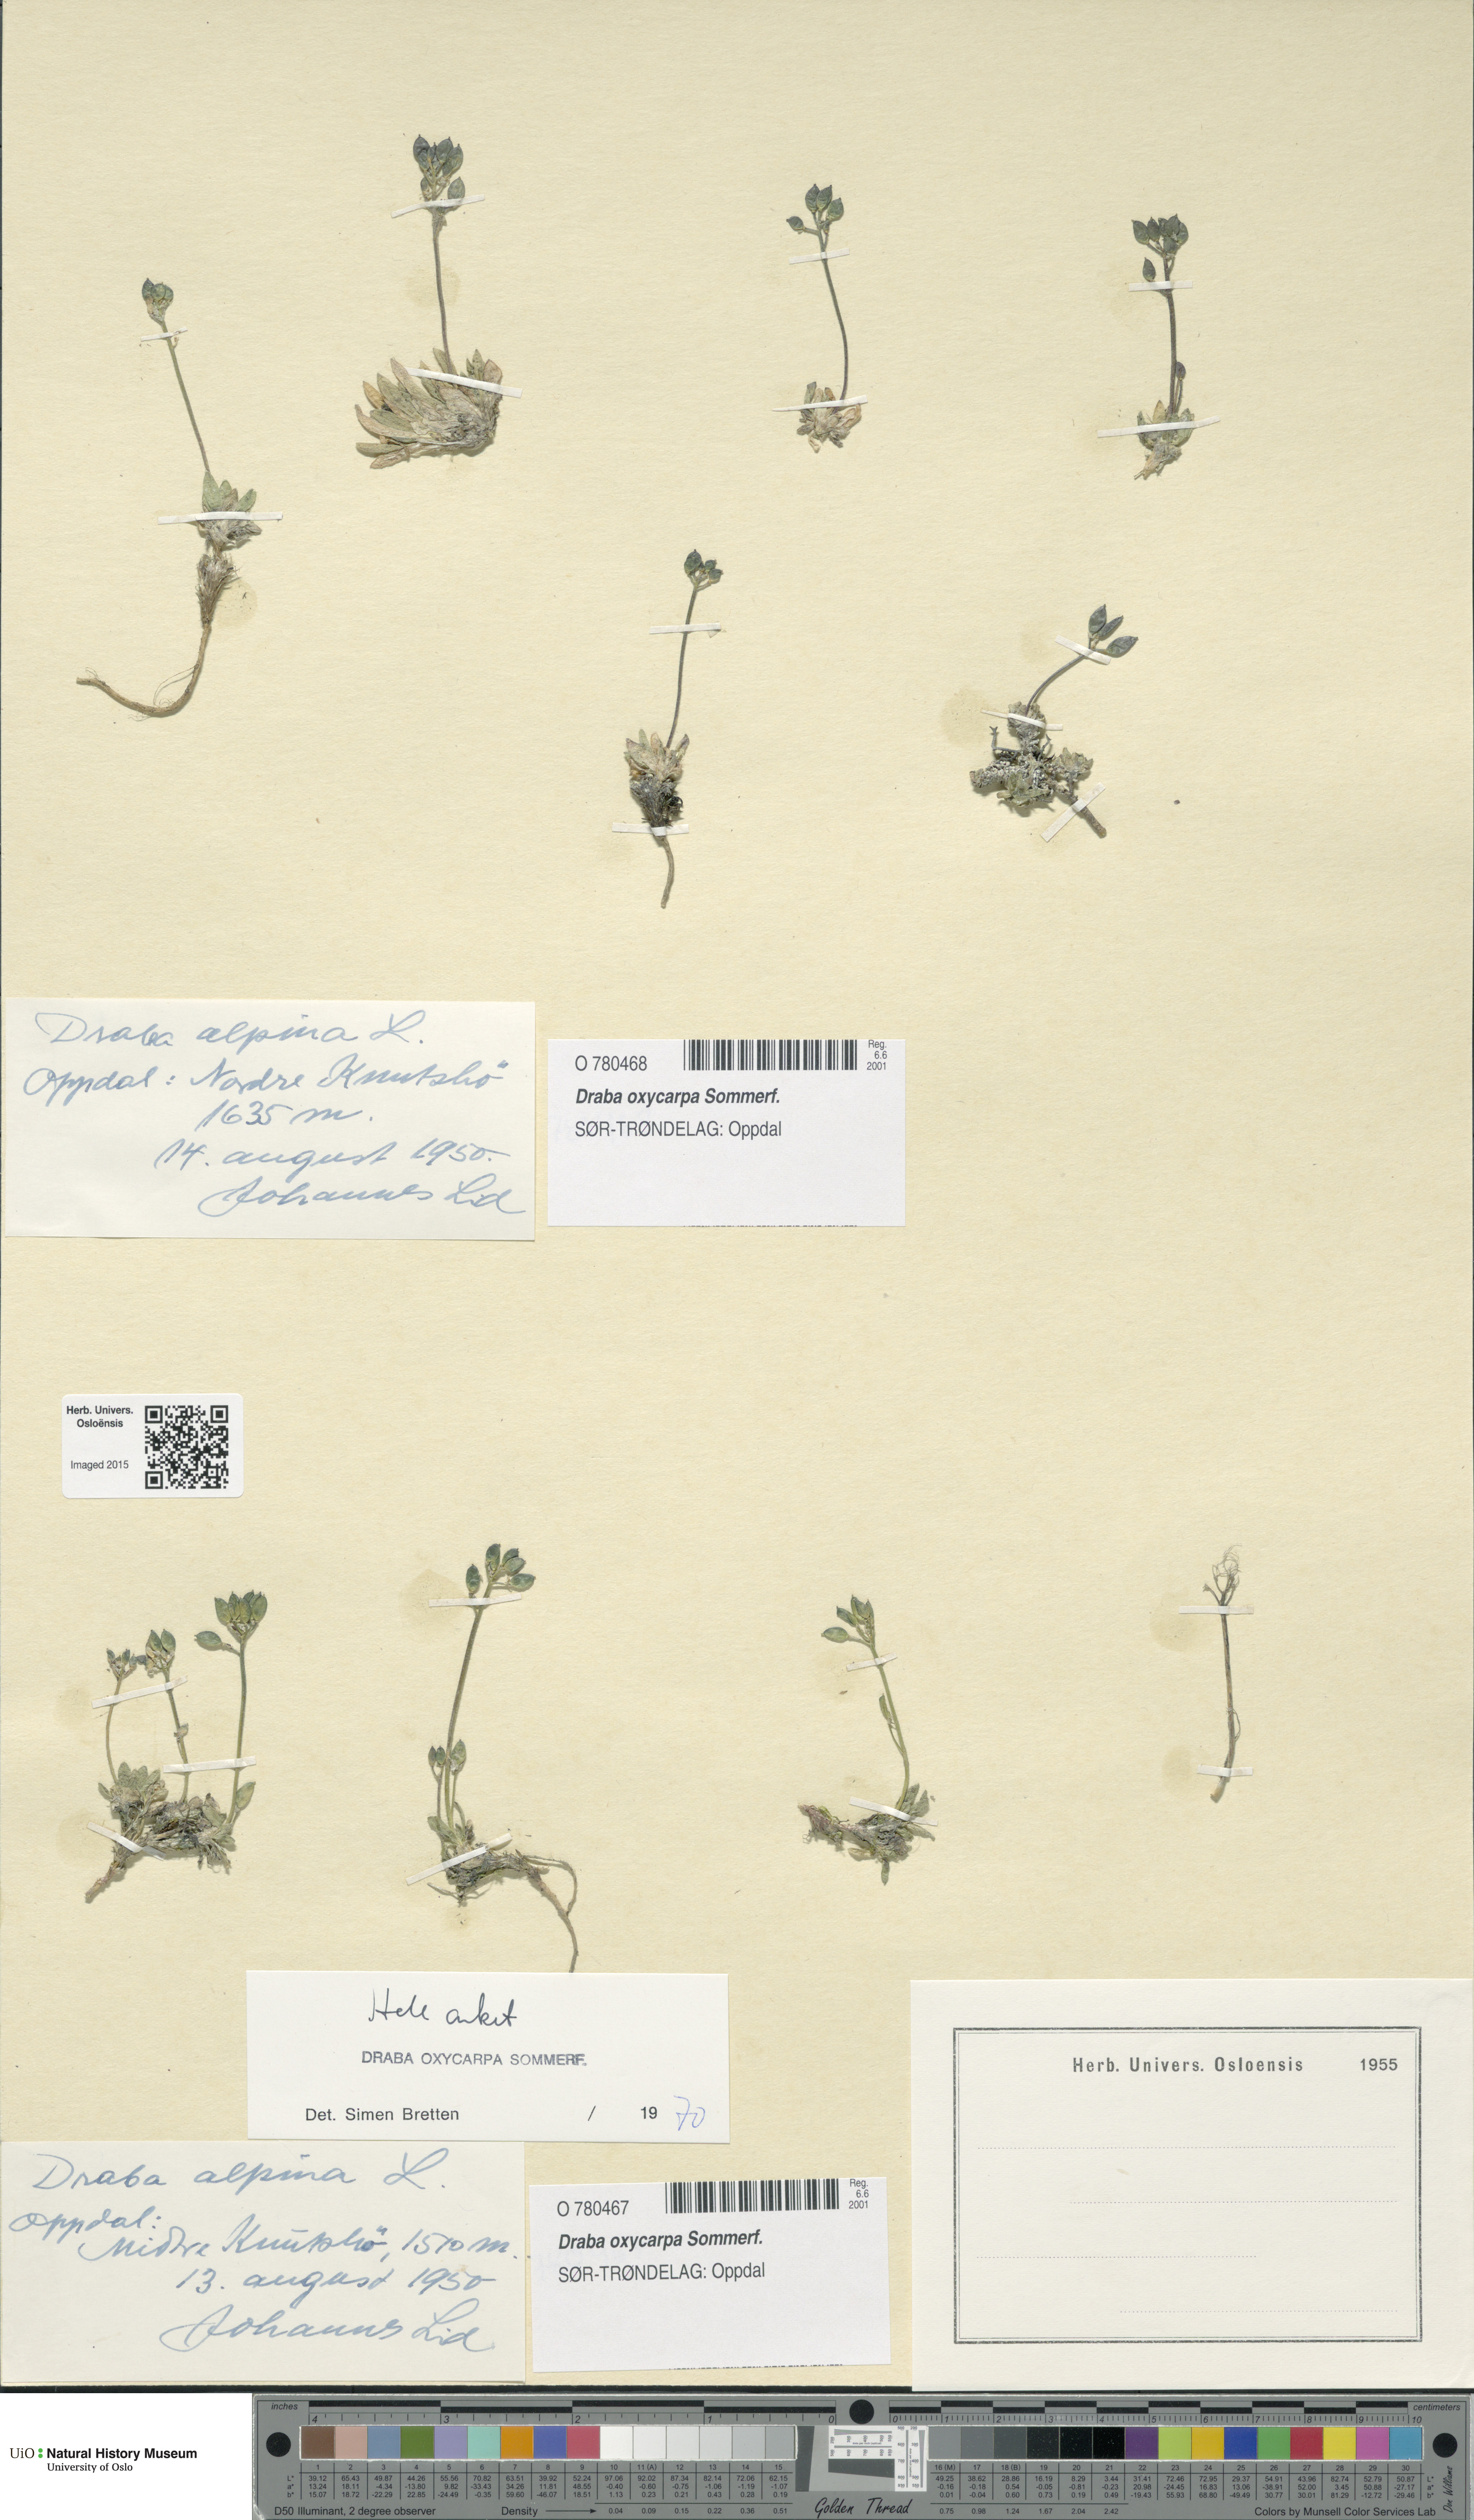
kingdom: Plantae
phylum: Tracheophyta
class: Magnoliopsida
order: Brassicales
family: Brassicaceae
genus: Draba
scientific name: Draba oxycarpa
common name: Sharp-fruited whitlow-grass
